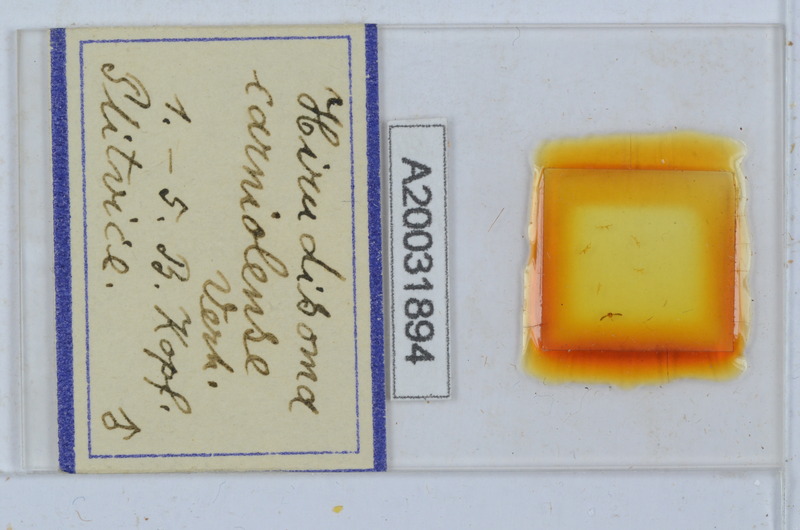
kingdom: Animalia
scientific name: Animalia
